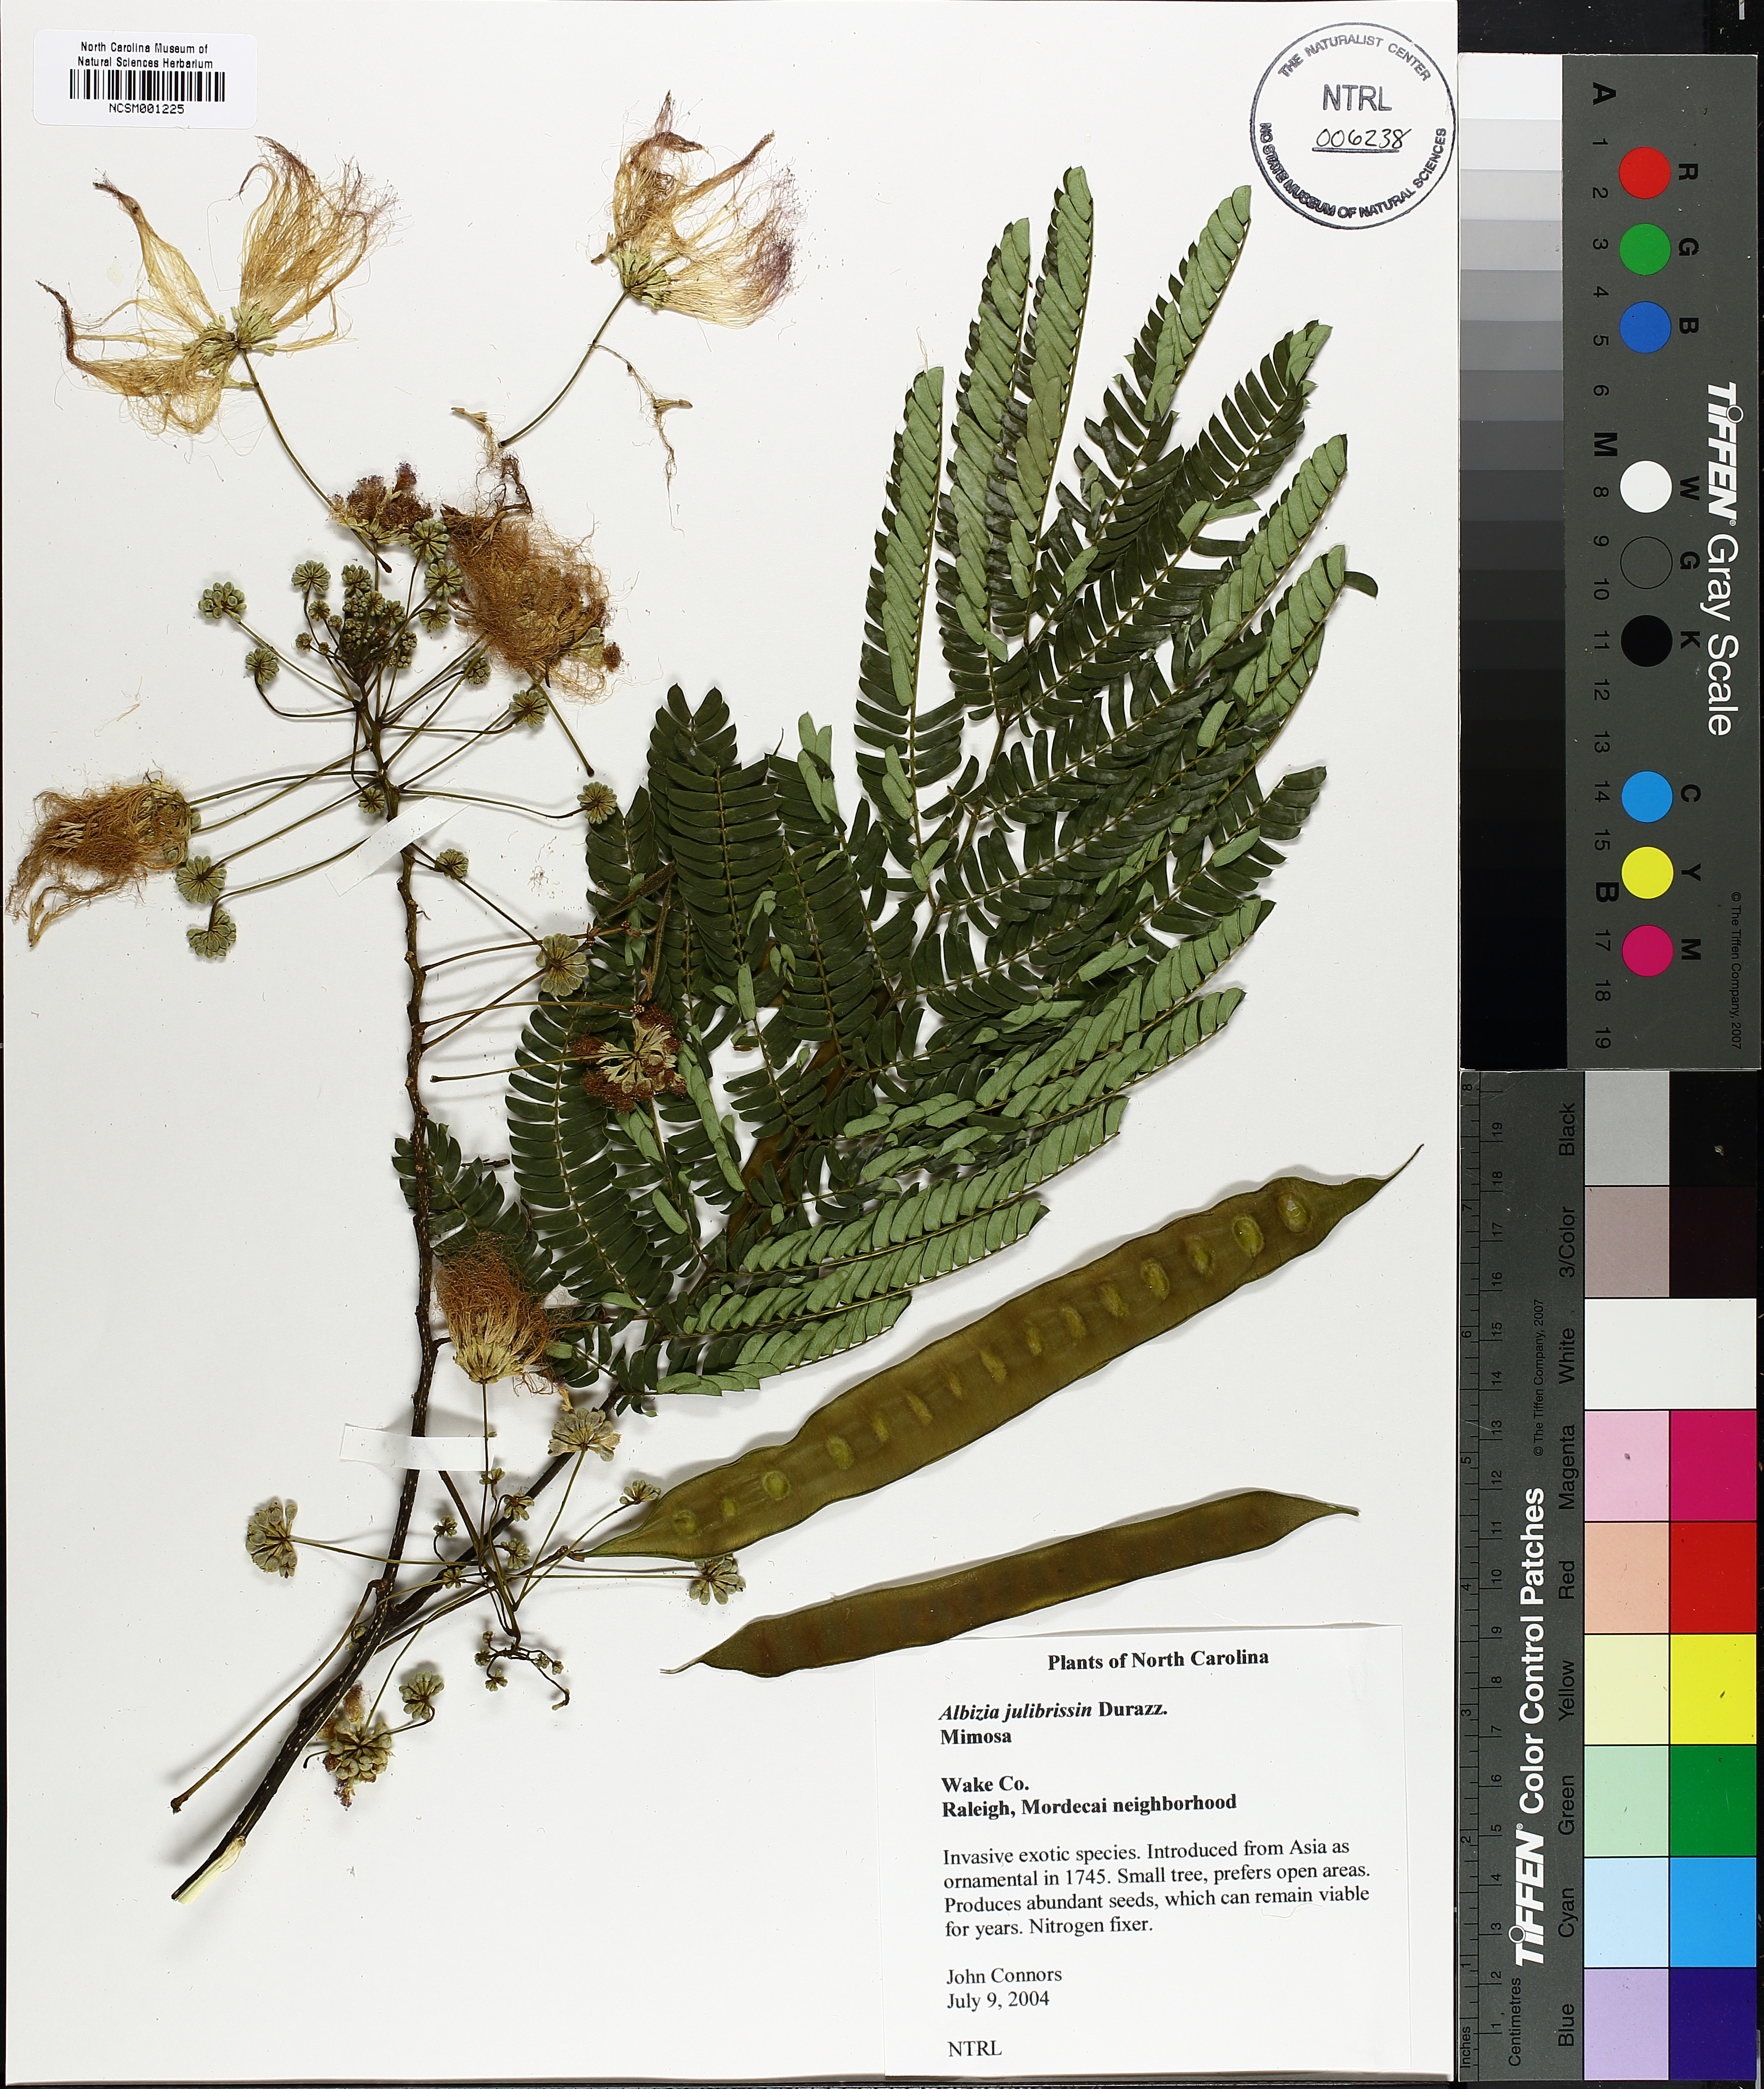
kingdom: Plantae
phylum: Tracheophyta
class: Magnoliopsida
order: Fabales
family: Fabaceae
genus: Albizia
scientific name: Albizia julibrissin
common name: Silktree
